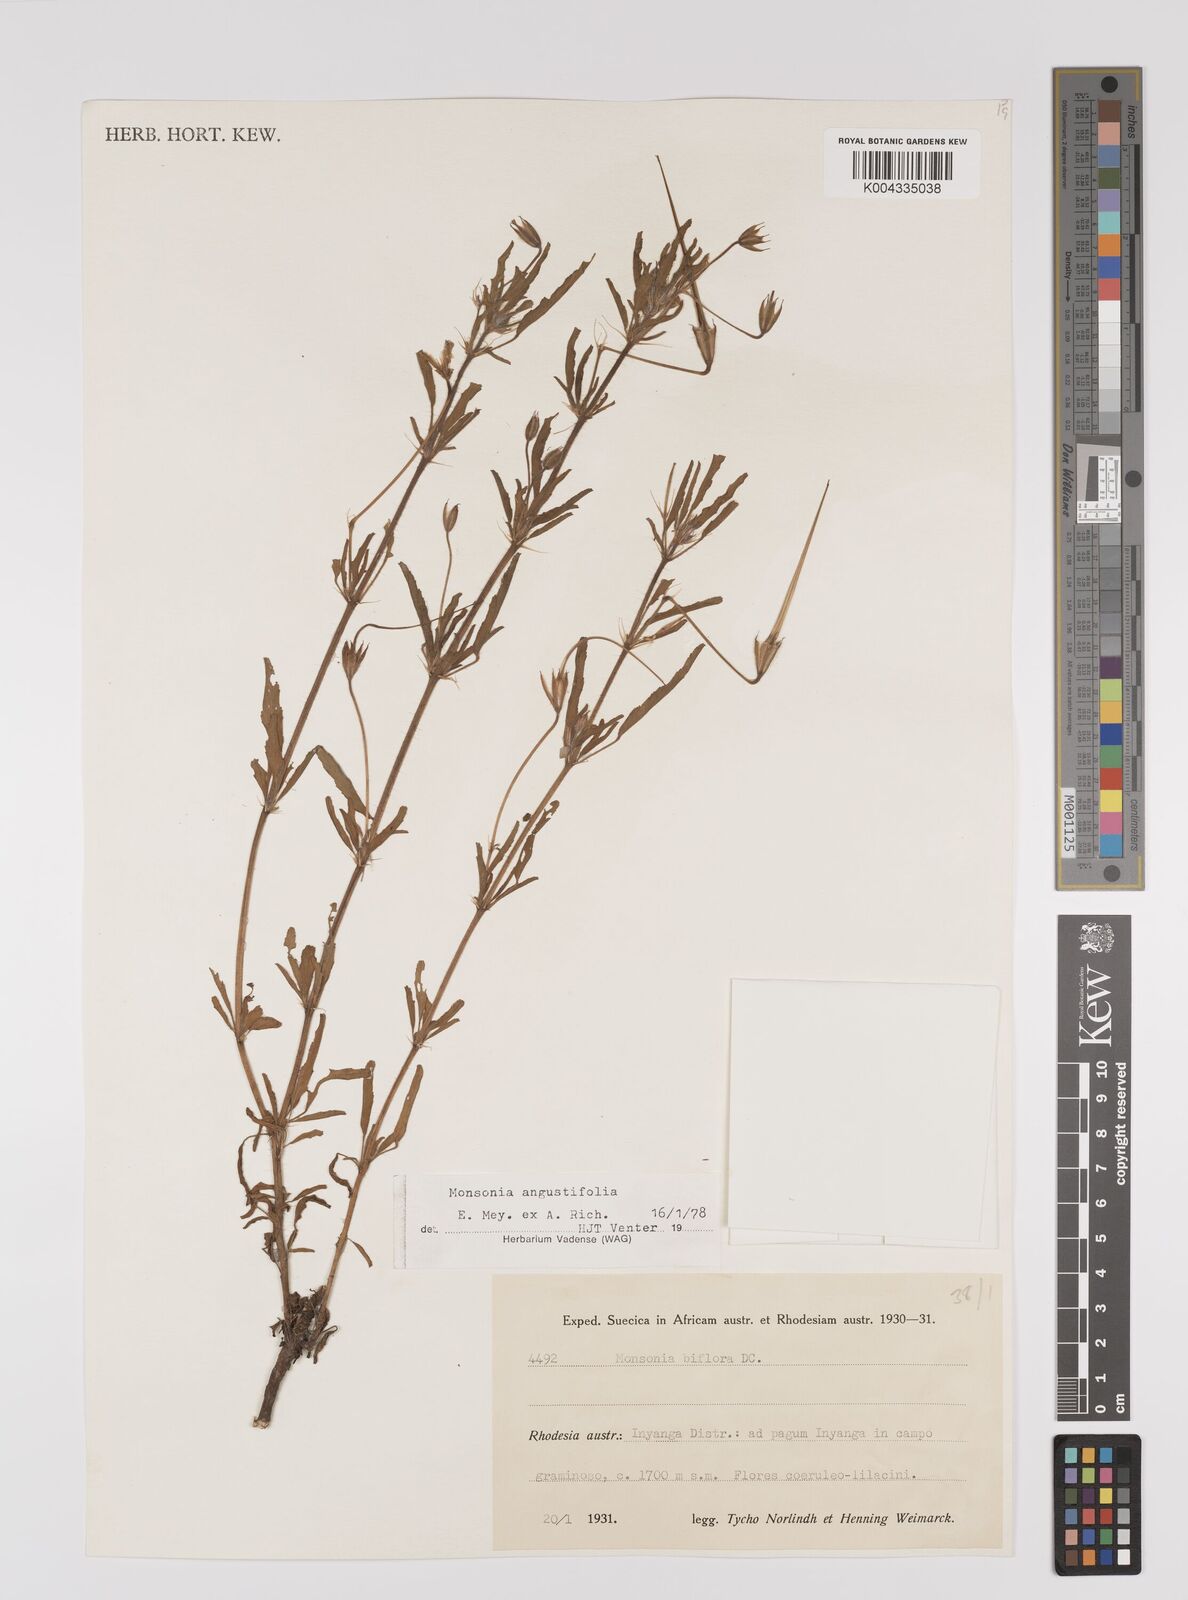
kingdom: Plantae
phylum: Tracheophyta
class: Magnoliopsida
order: Geraniales
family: Geraniaceae
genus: Monsonia
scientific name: Monsonia angustifolia
